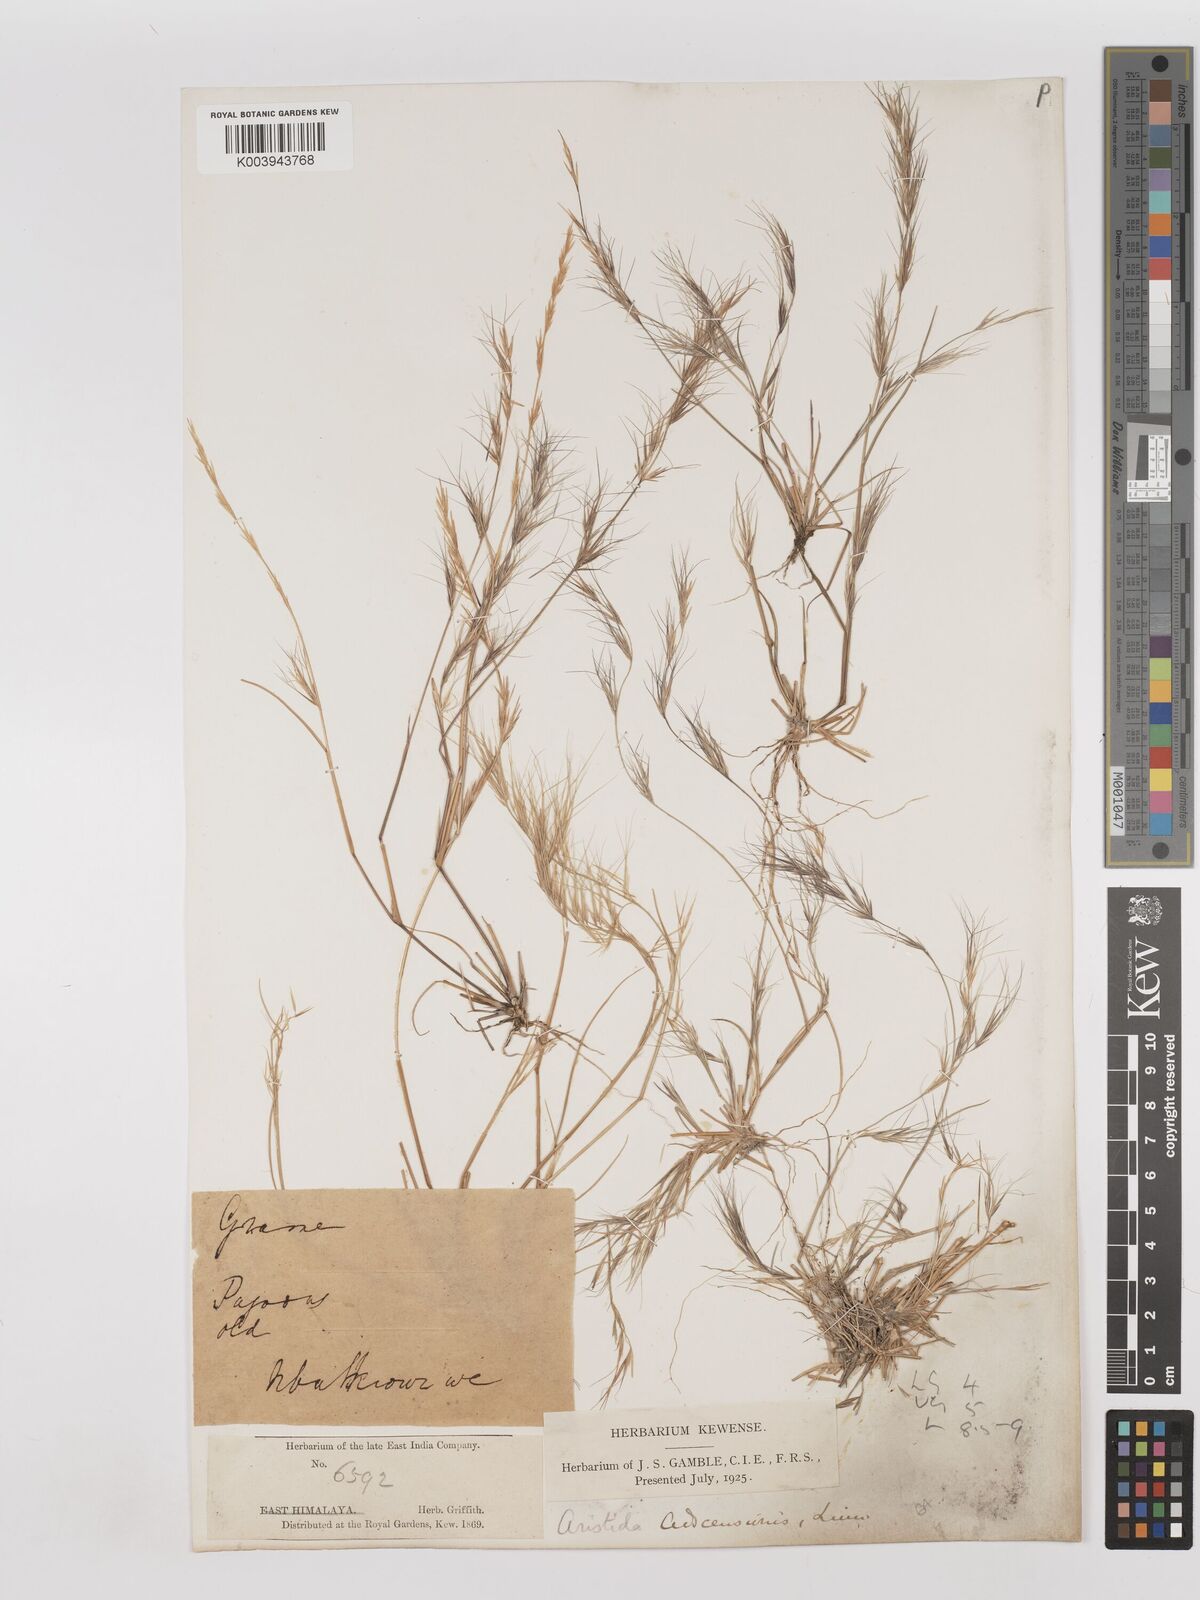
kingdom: Plantae
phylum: Tracheophyta
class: Liliopsida
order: Poales
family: Poaceae
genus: Aristida
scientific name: Aristida adscensionis
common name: Sixweeks threeawn
